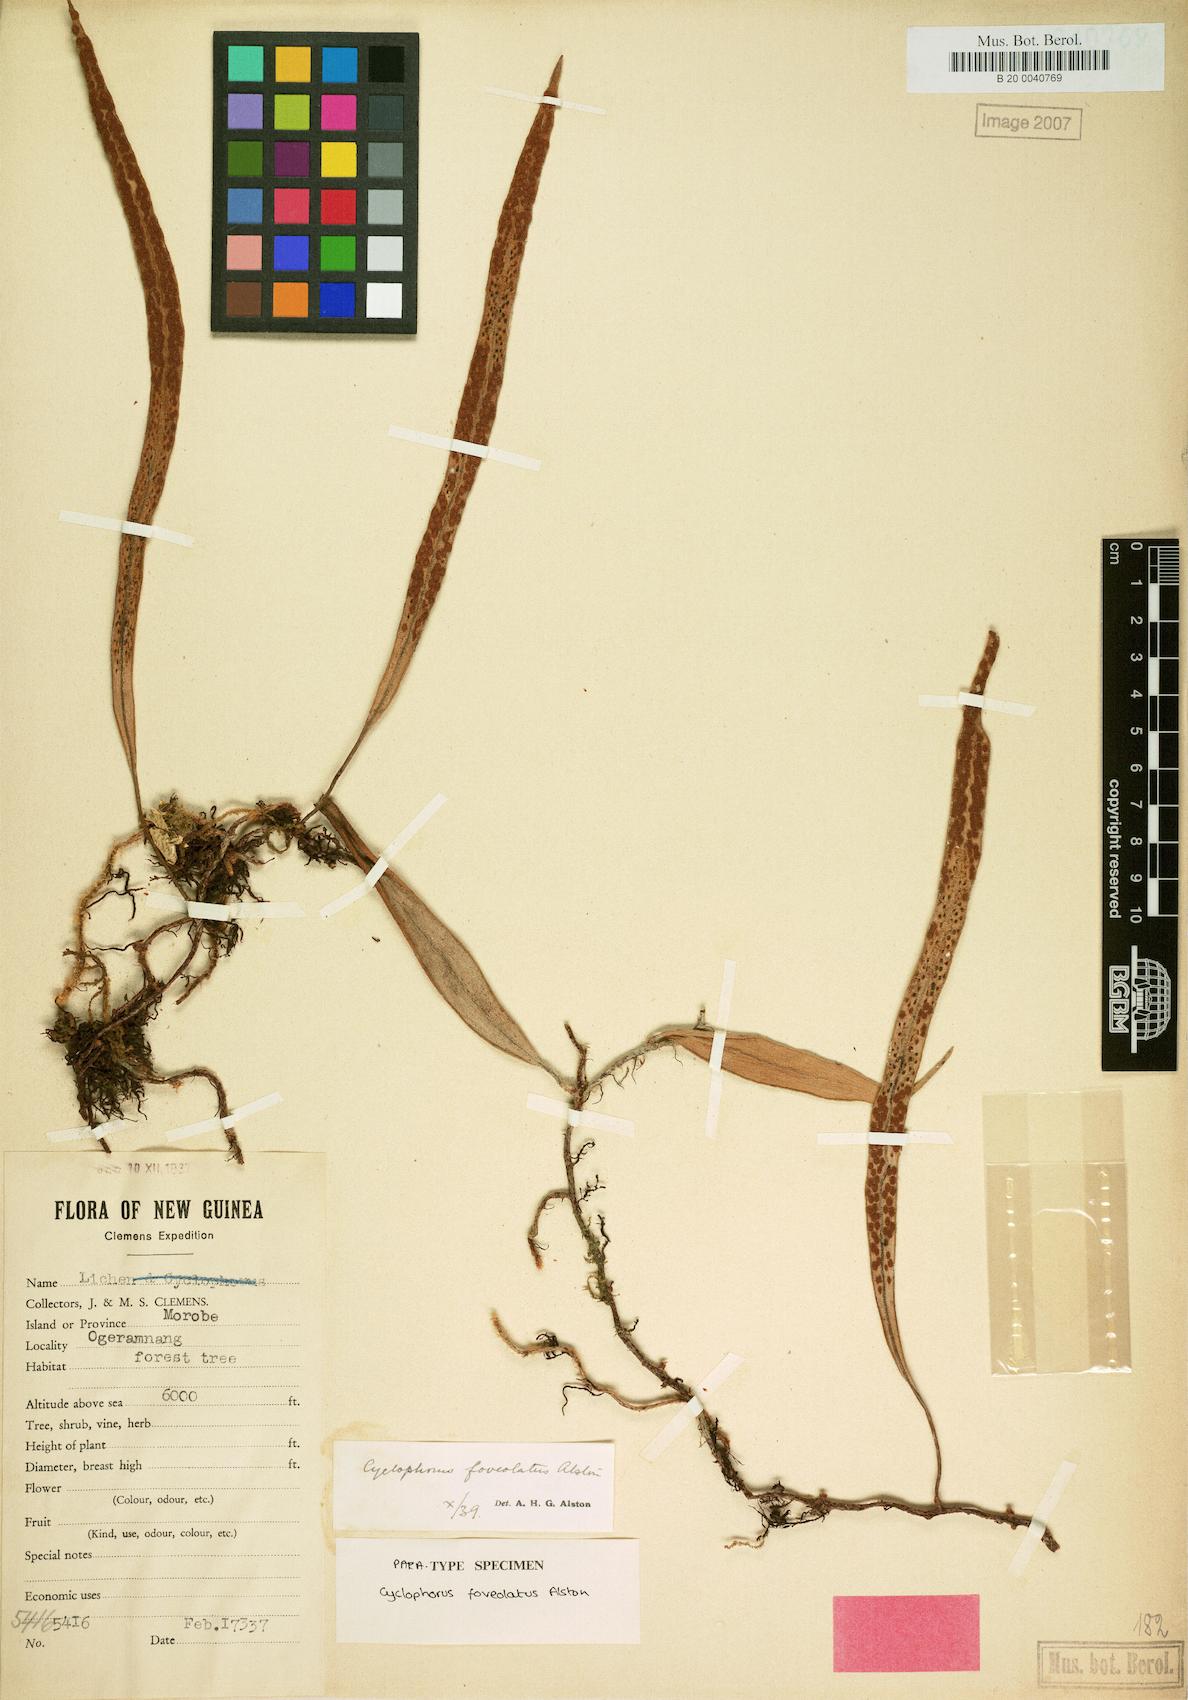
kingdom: Plantae
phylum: Tracheophyta
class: Polypodiopsida
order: Polypodiales
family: Polypodiaceae
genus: Pyrrosia
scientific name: Pyrrosia foveolata
